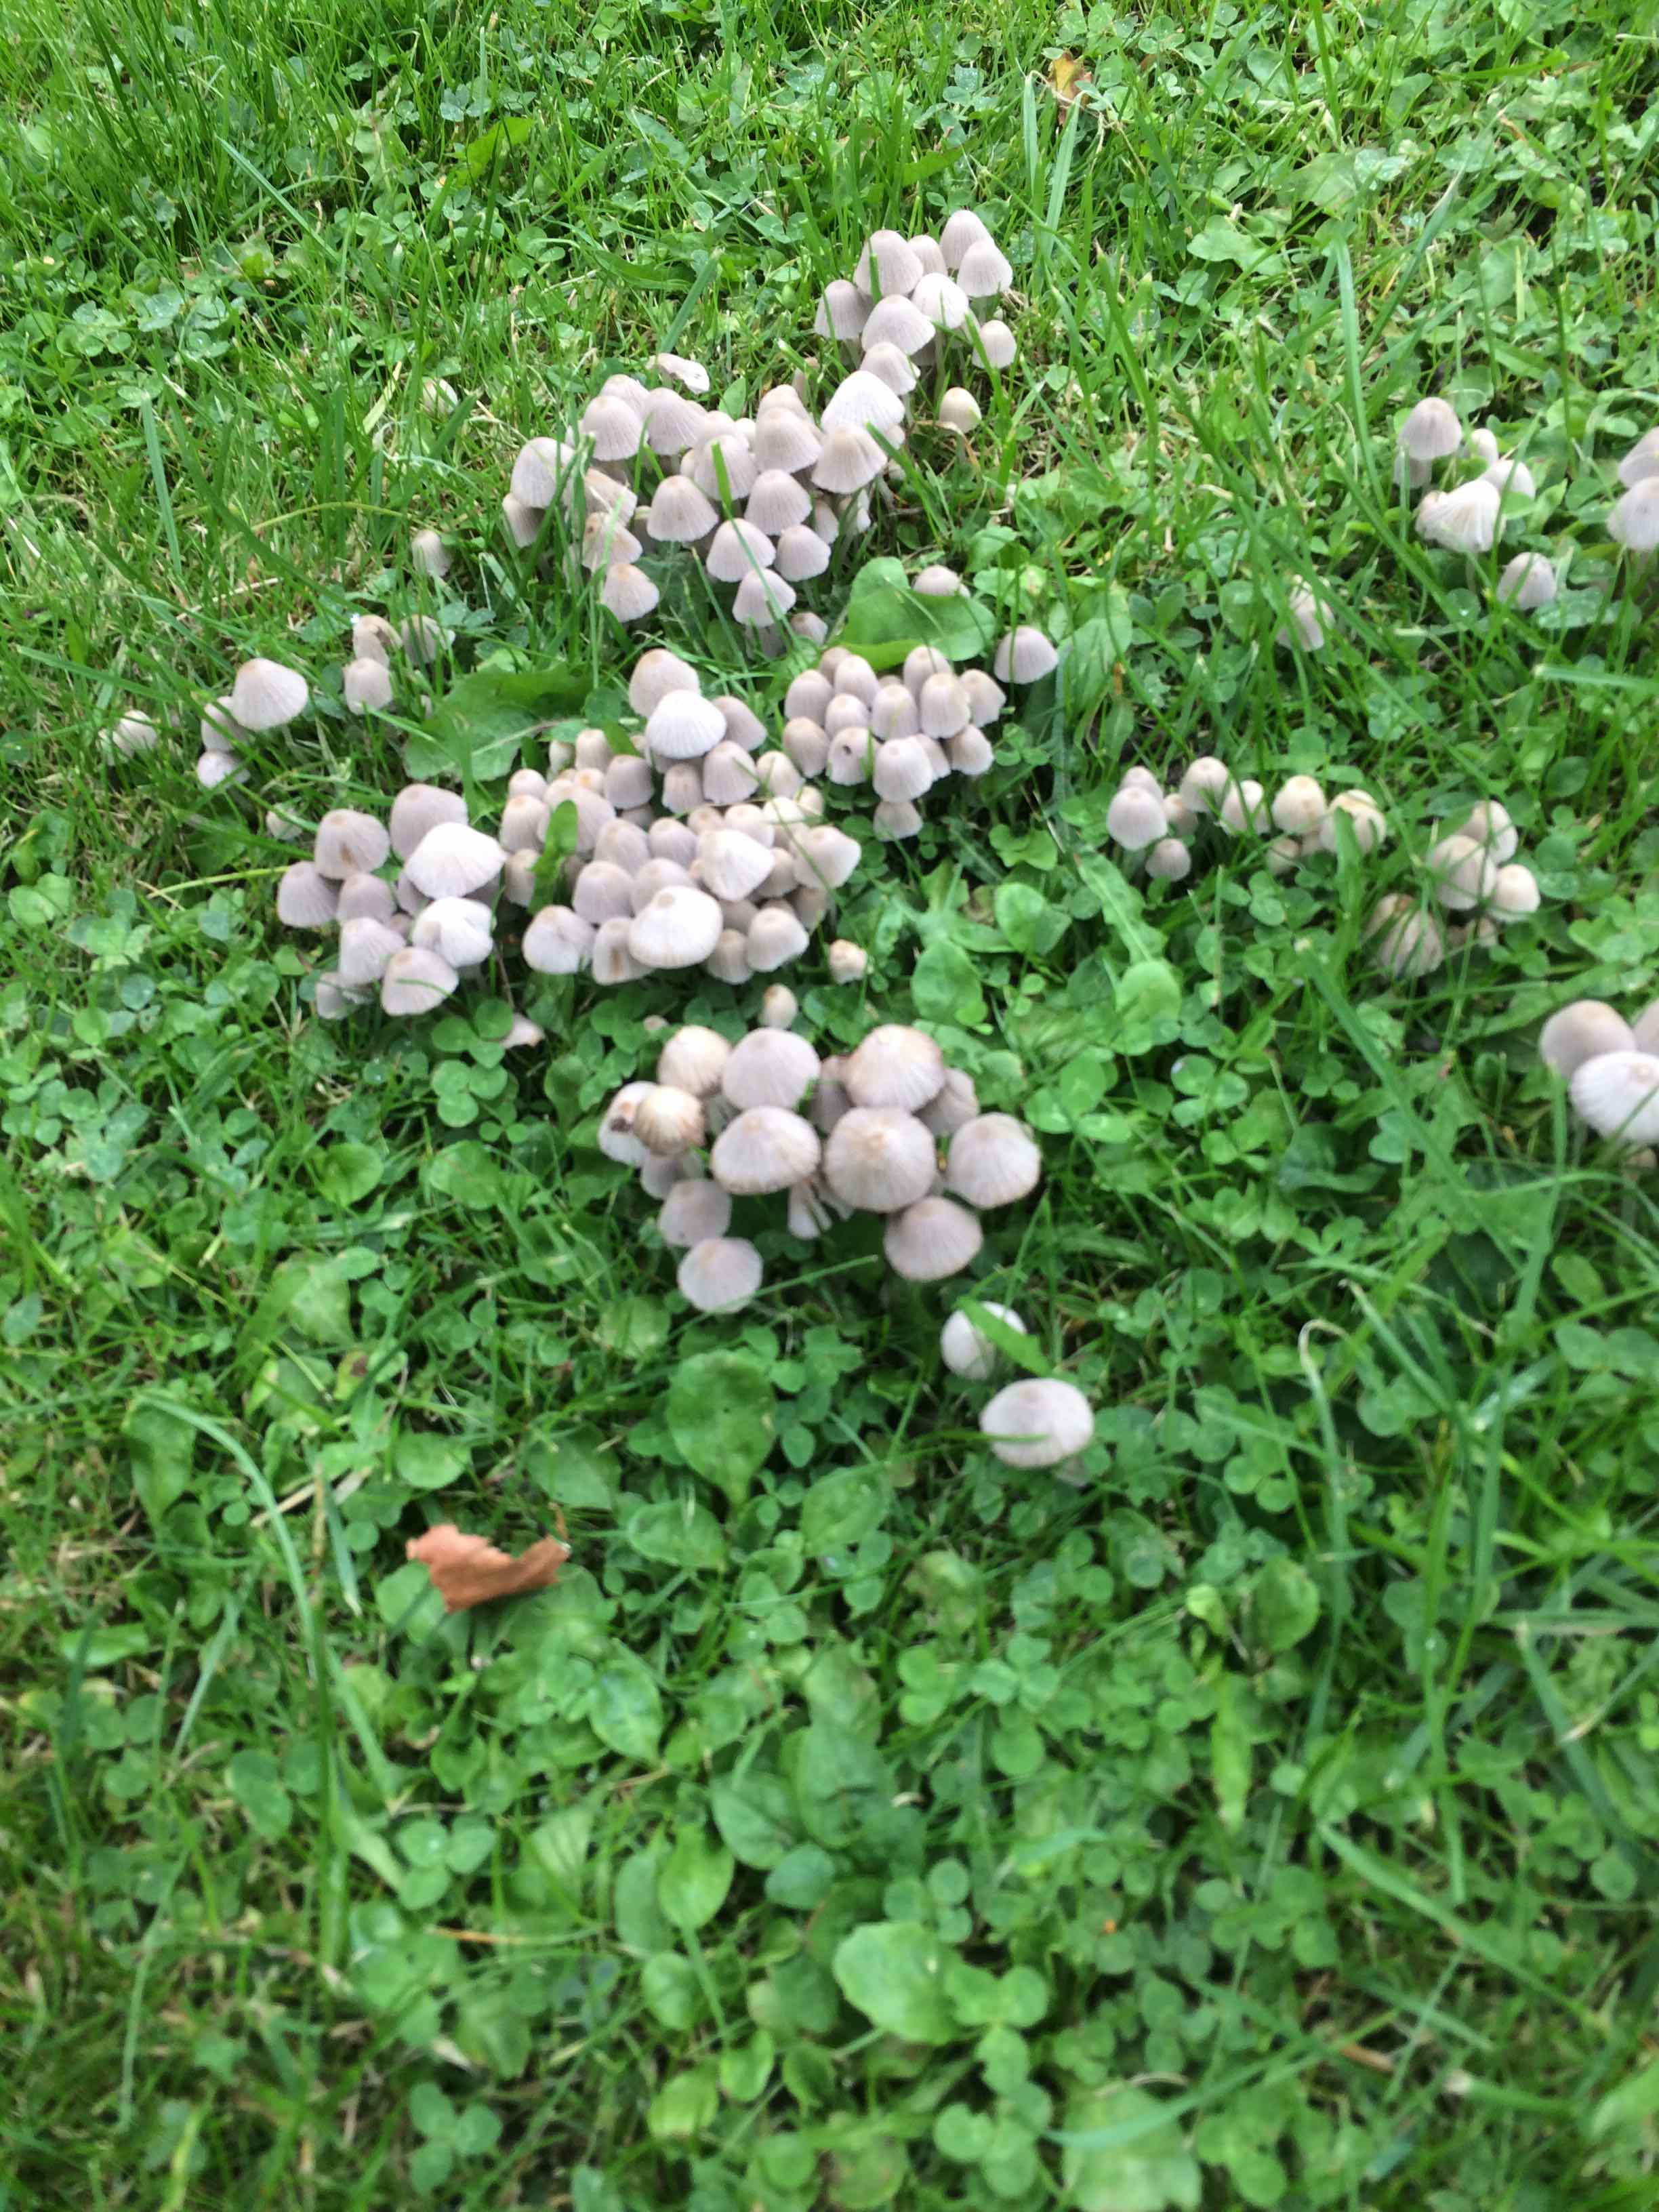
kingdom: Fungi
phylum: Basidiomycota
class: Agaricomycetes
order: Agaricales
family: Psathyrellaceae
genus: Coprinellus
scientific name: Coprinellus disseminatus
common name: bredsået blækhat
